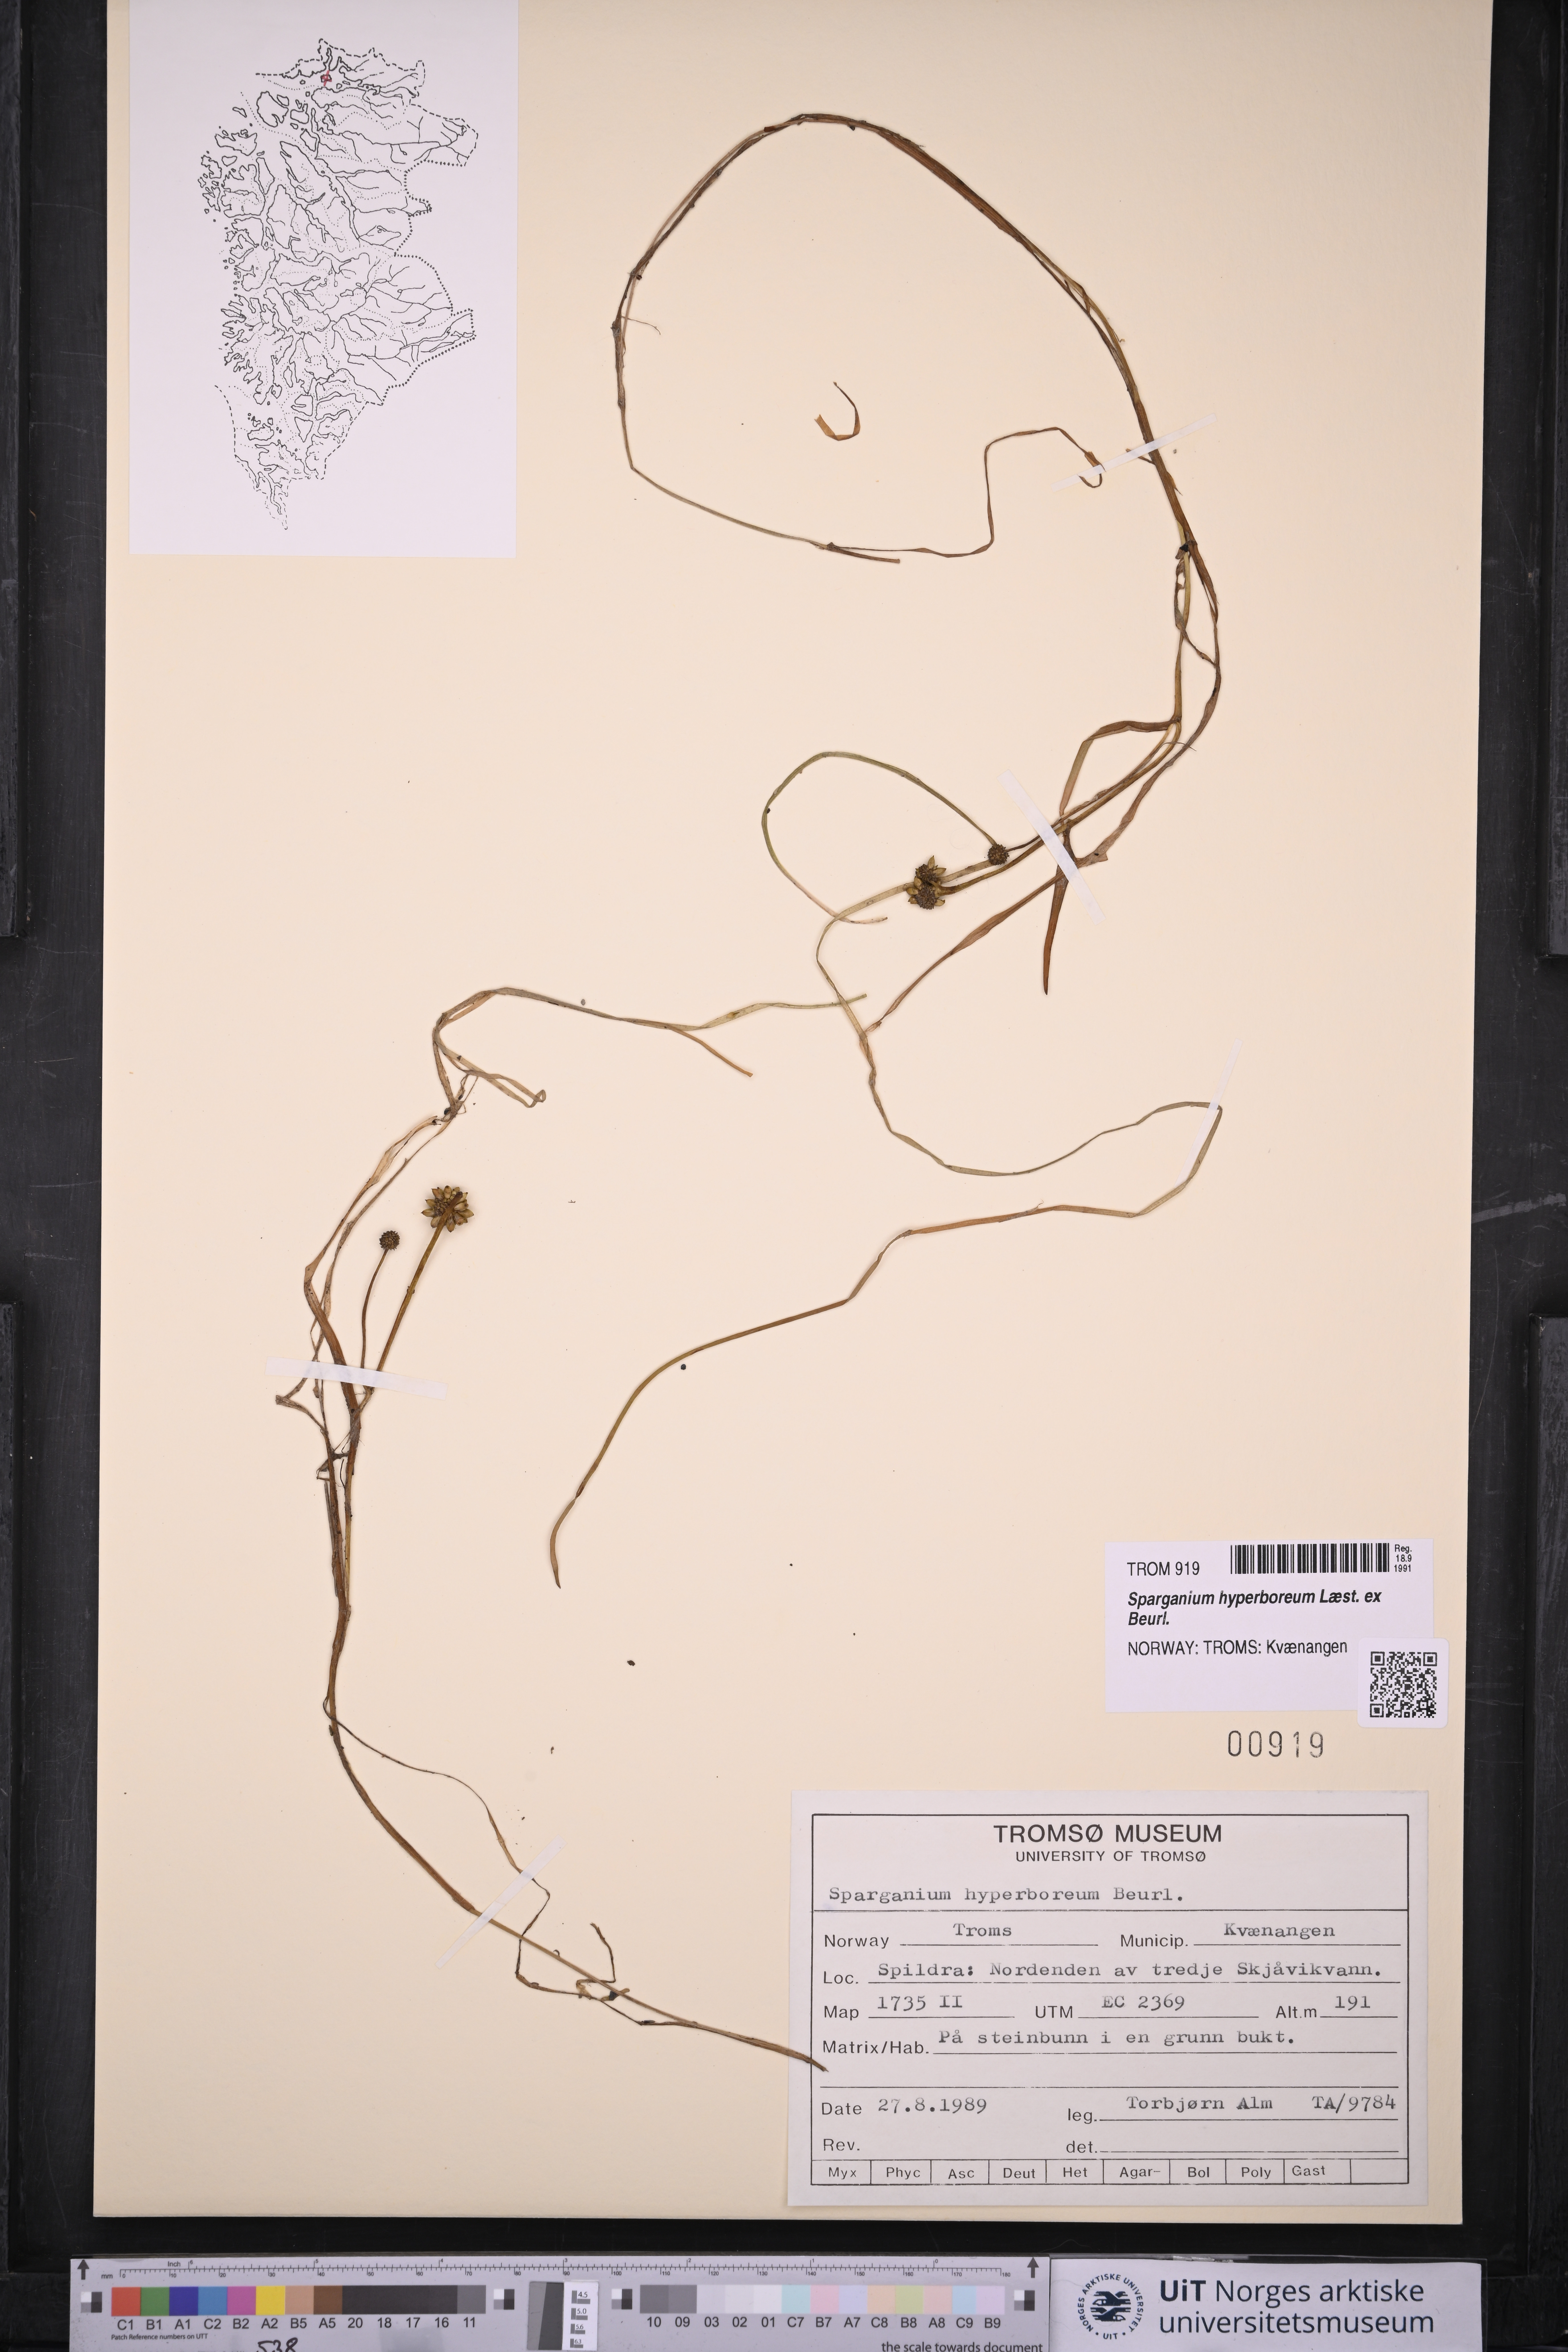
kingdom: Plantae
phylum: Tracheophyta
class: Liliopsida
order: Poales
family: Typhaceae
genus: Sparganium
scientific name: Sparganium hyperboreum
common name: Arctic burreed
